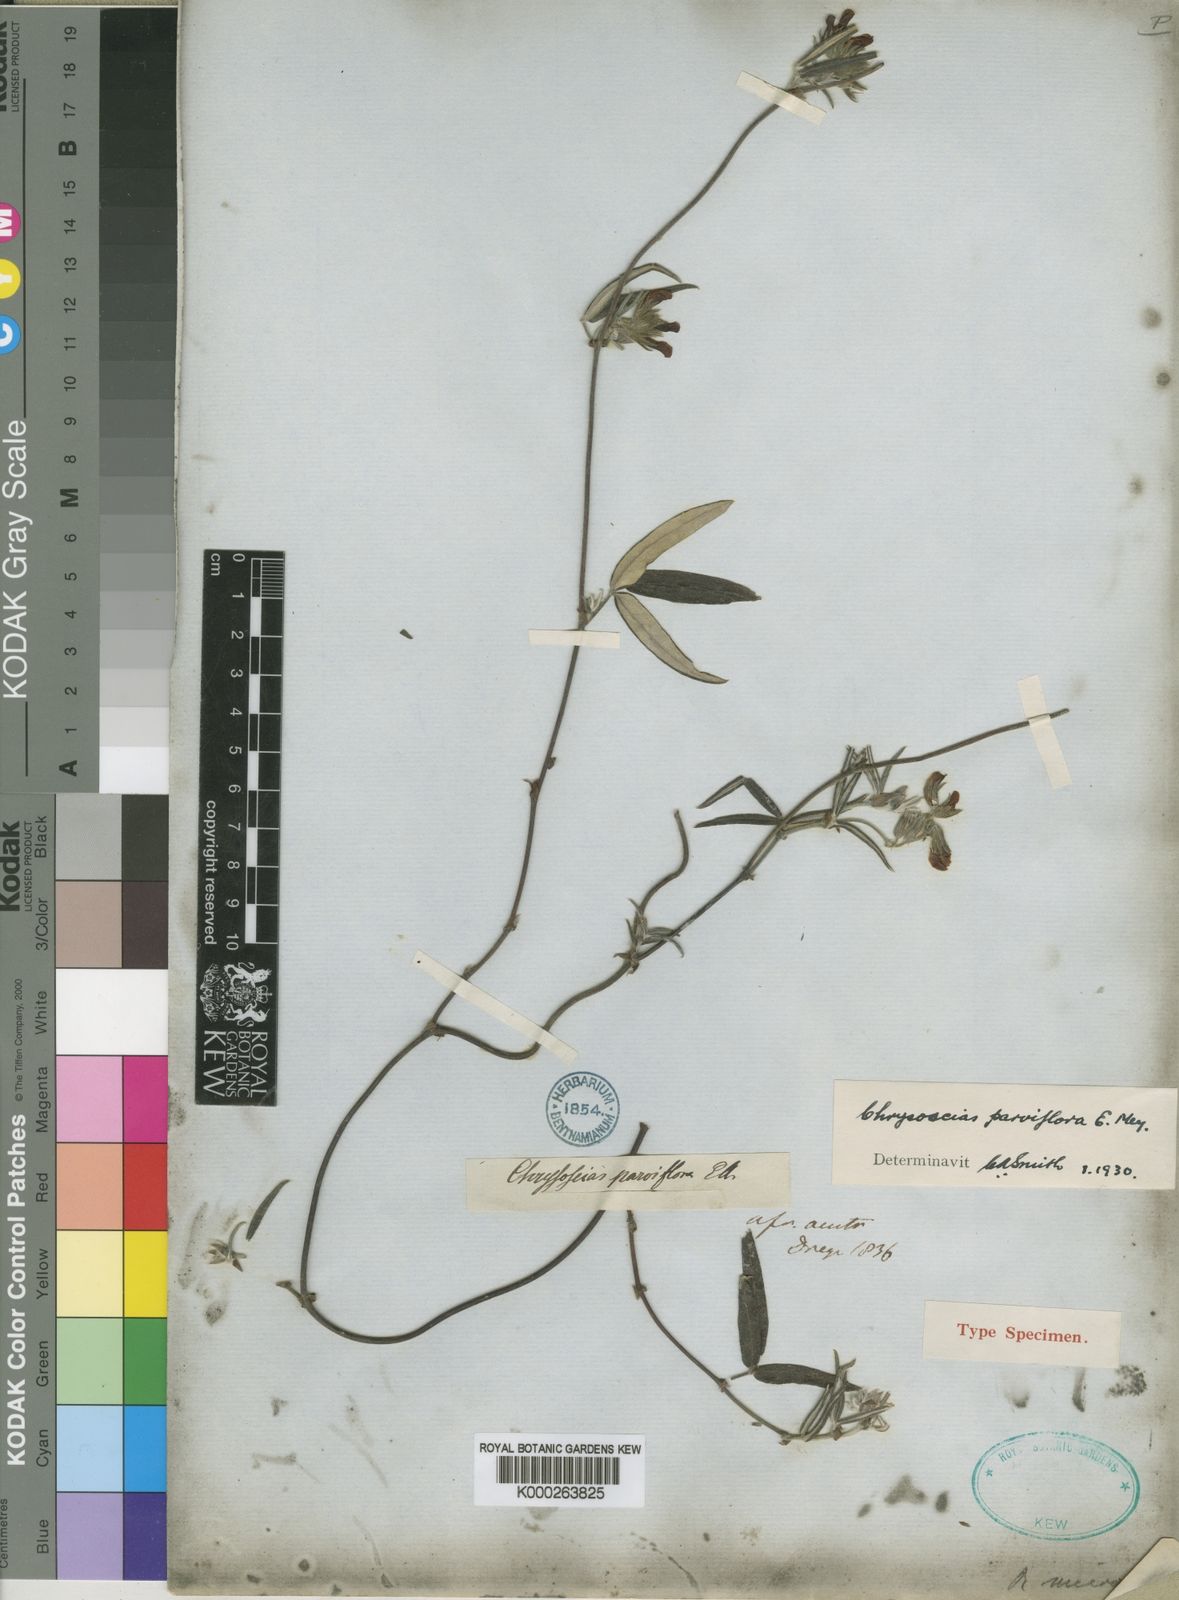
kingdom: Plantae
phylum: Tracheophyta
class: Magnoliopsida
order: Fabales
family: Fabaceae
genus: Rhynchosia
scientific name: Rhynchosia
